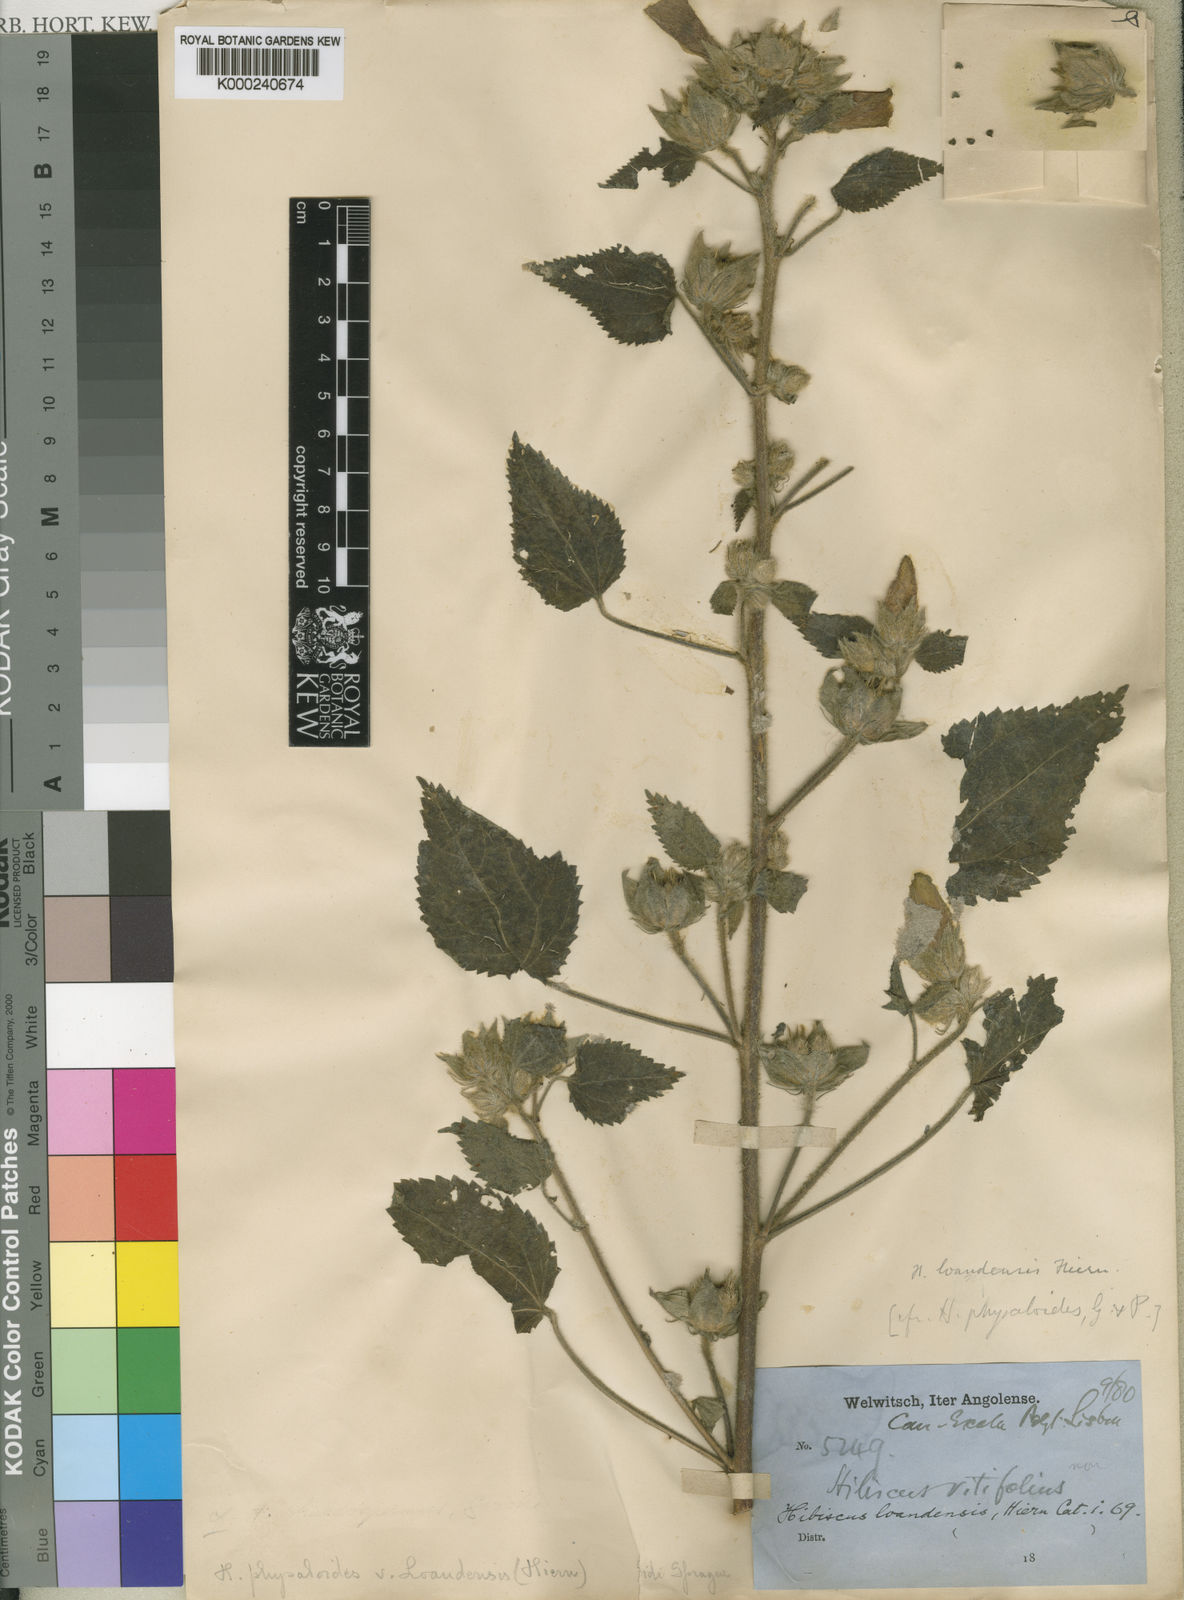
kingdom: Plantae
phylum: Tracheophyta
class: Magnoliopsida
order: Malvales
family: Malvaceae
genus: Hibiscus
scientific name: Hibiscus loandensis
